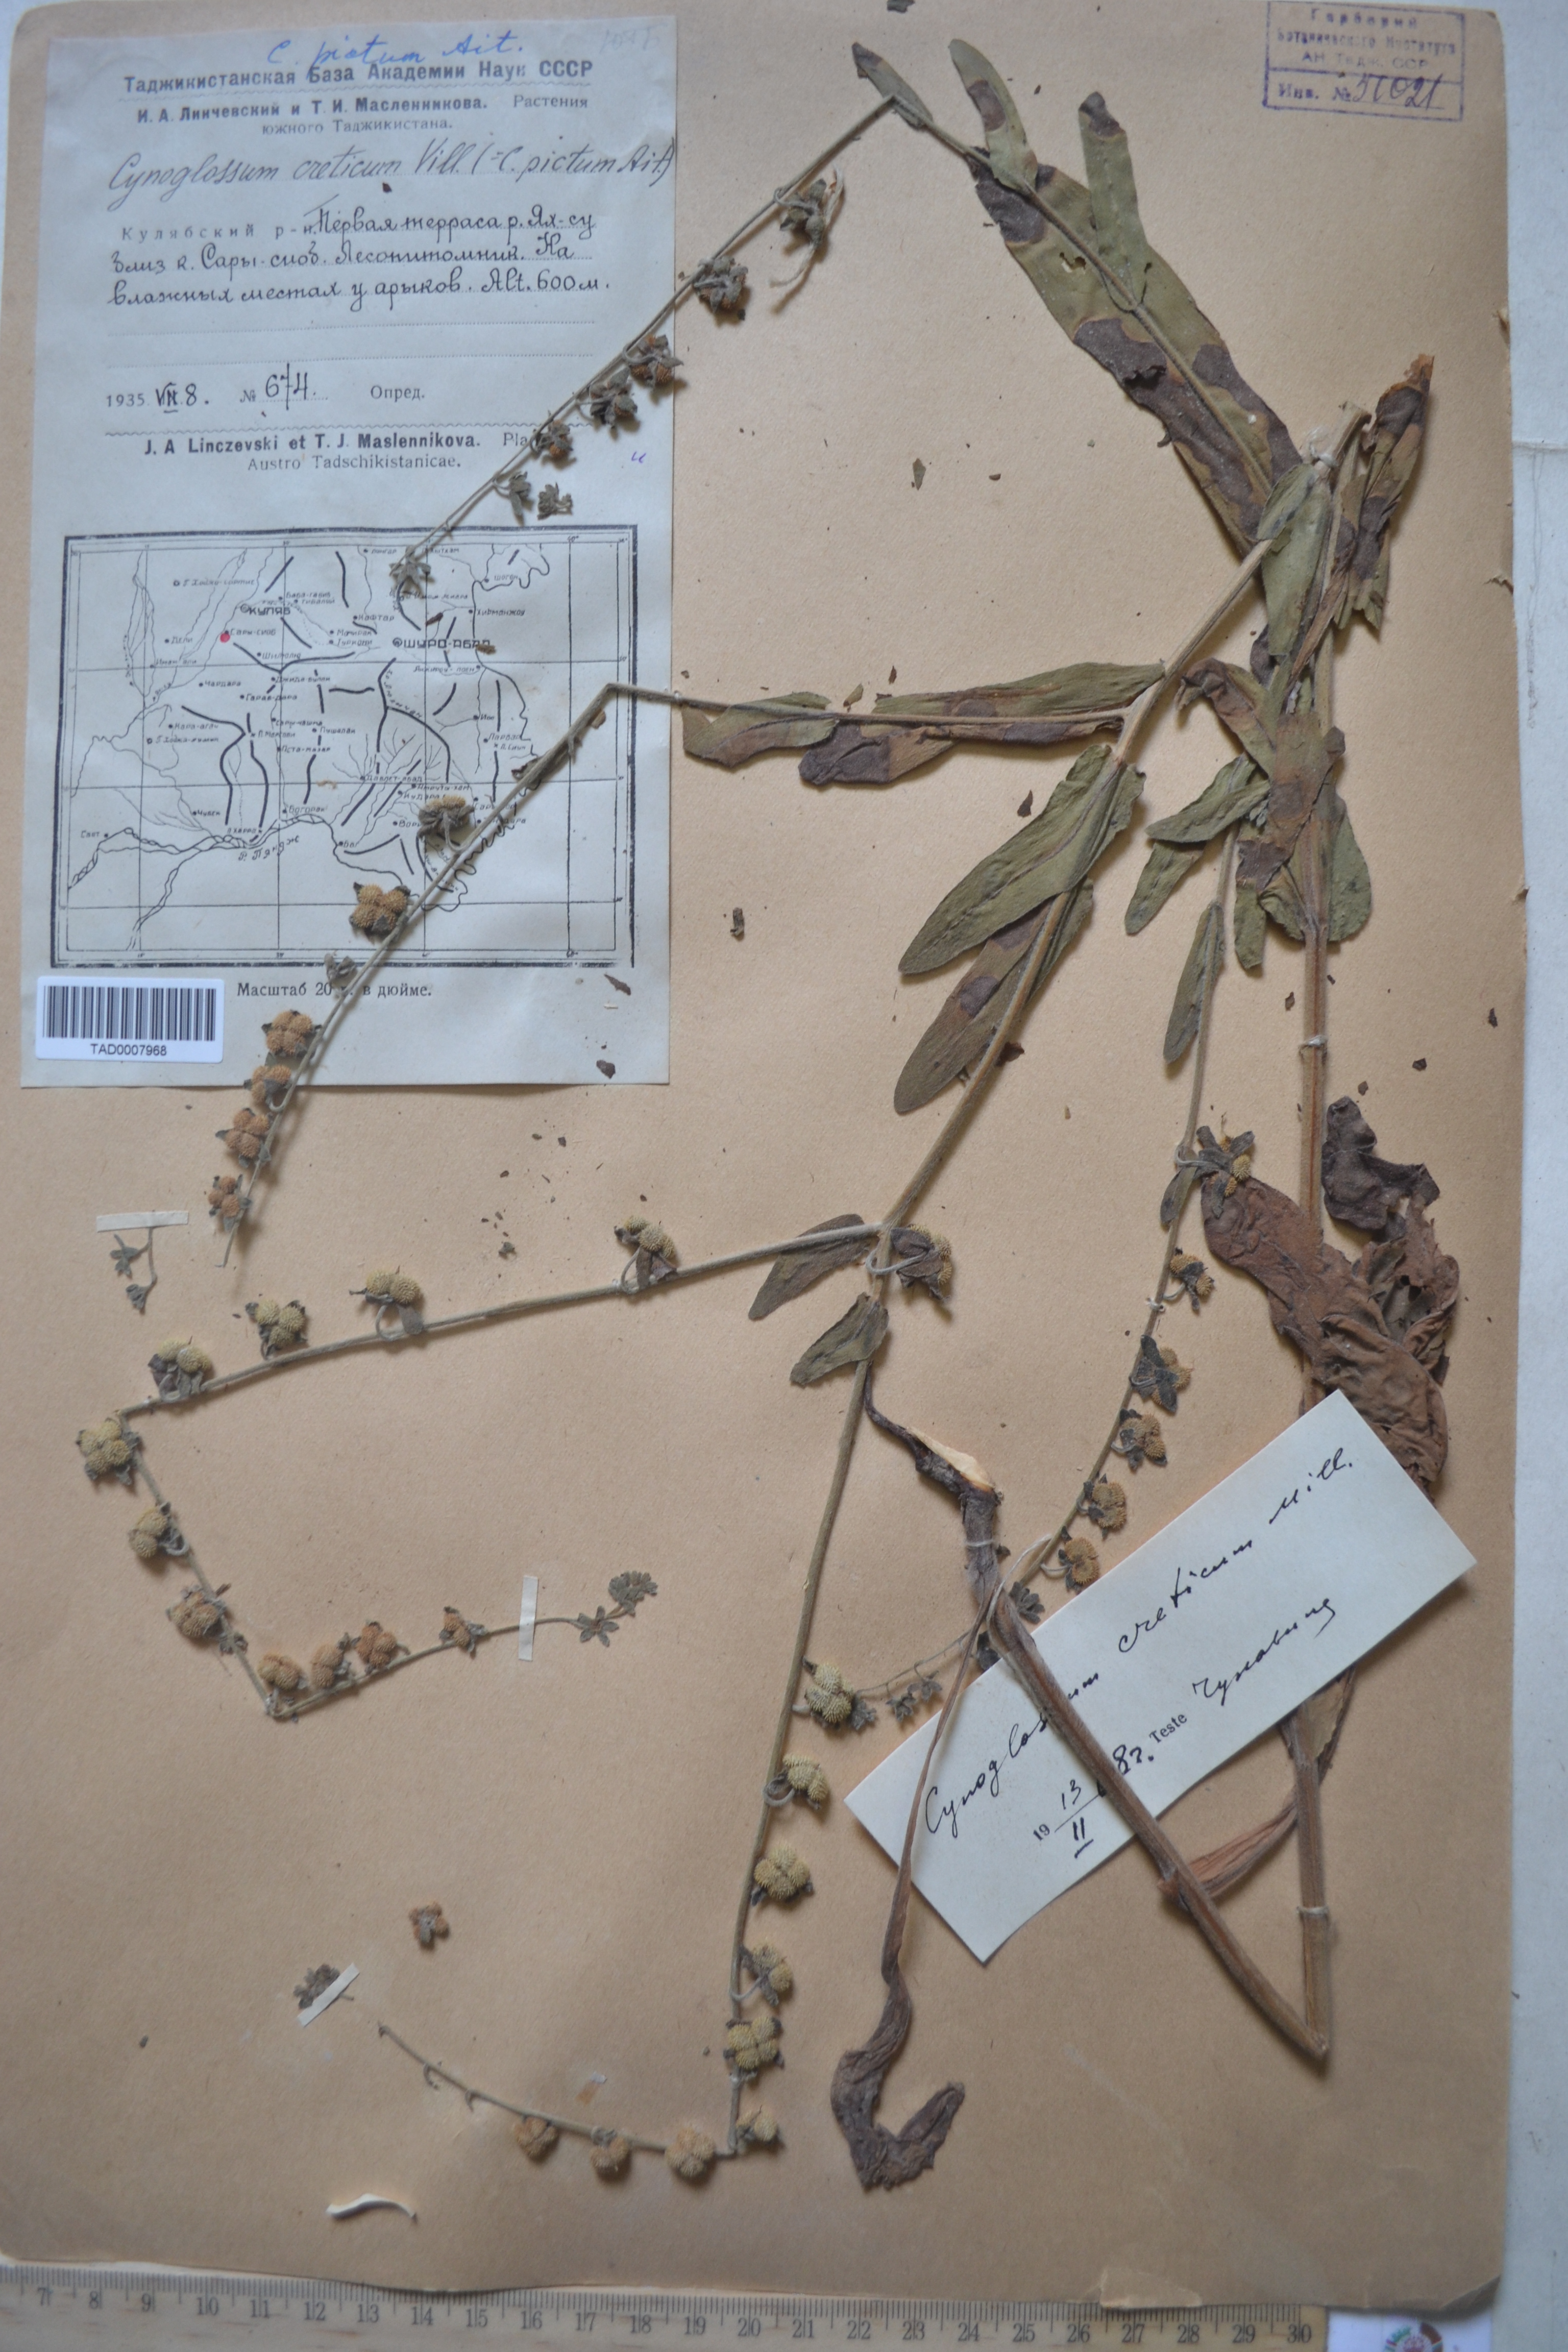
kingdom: Plantae
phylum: Tracheophyta
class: Magnoliopsida
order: Boraginales
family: Boraginaceae
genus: Cynoglossum
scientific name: Cynoglossum creticum
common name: Blue hound's tongue
